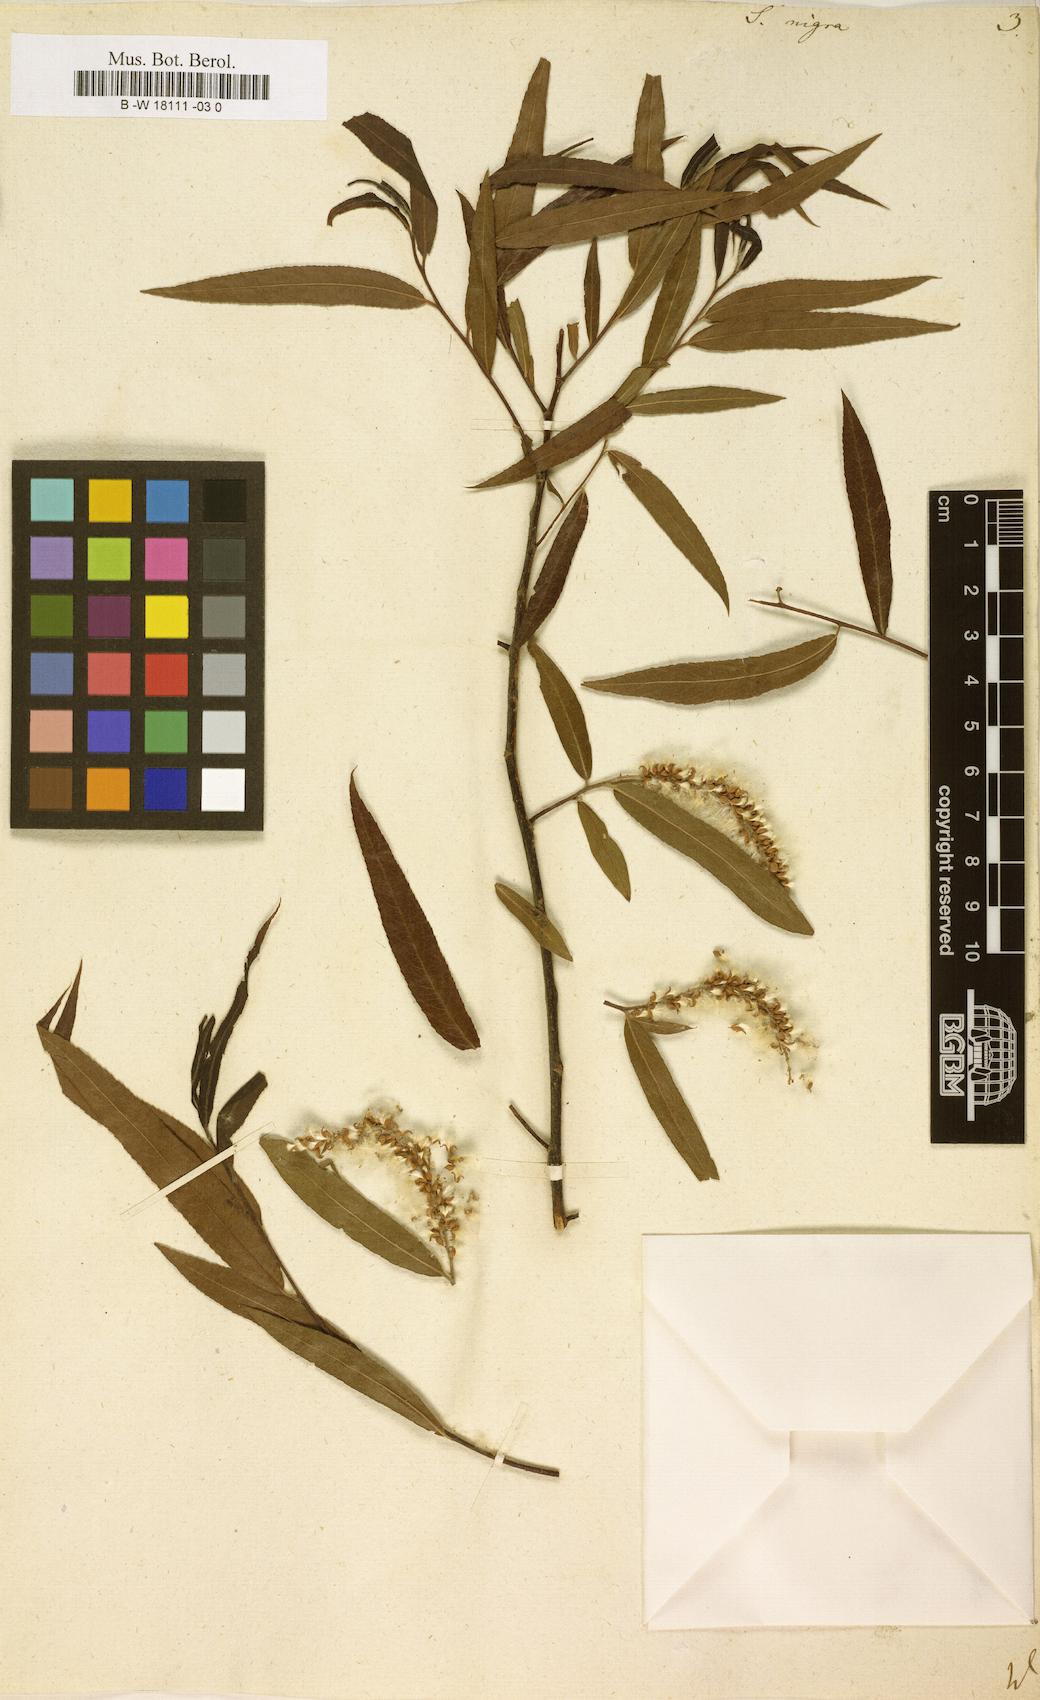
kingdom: Plantae
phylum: Tracheophyta
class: Magnoliopsida
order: Malpighiales
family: Salicaceae
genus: Salix
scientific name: Salix nigra
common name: Black willow
